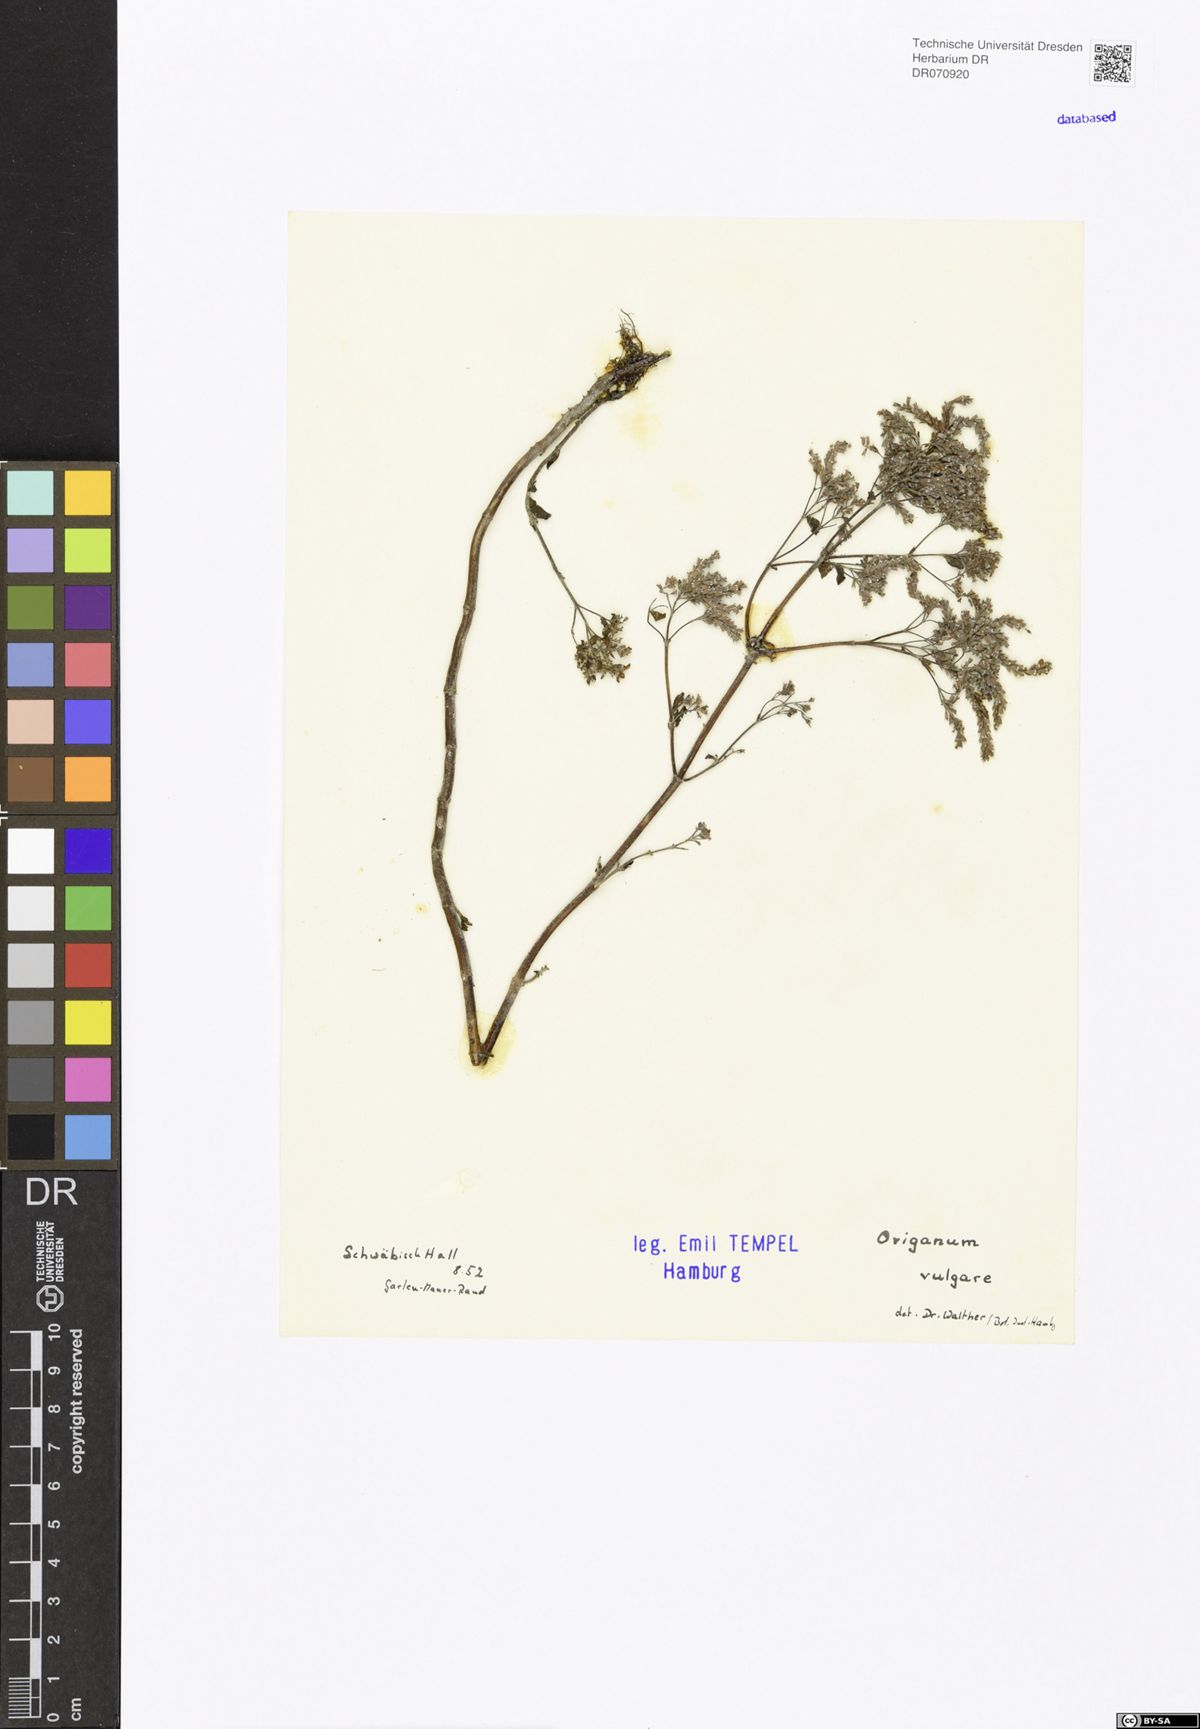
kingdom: Plantae
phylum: Tracheophyta
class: Magnoliopsida
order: Lamiales
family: Lamiaceae
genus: Origanum
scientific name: Origanum vulgare
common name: Wild marjoram
